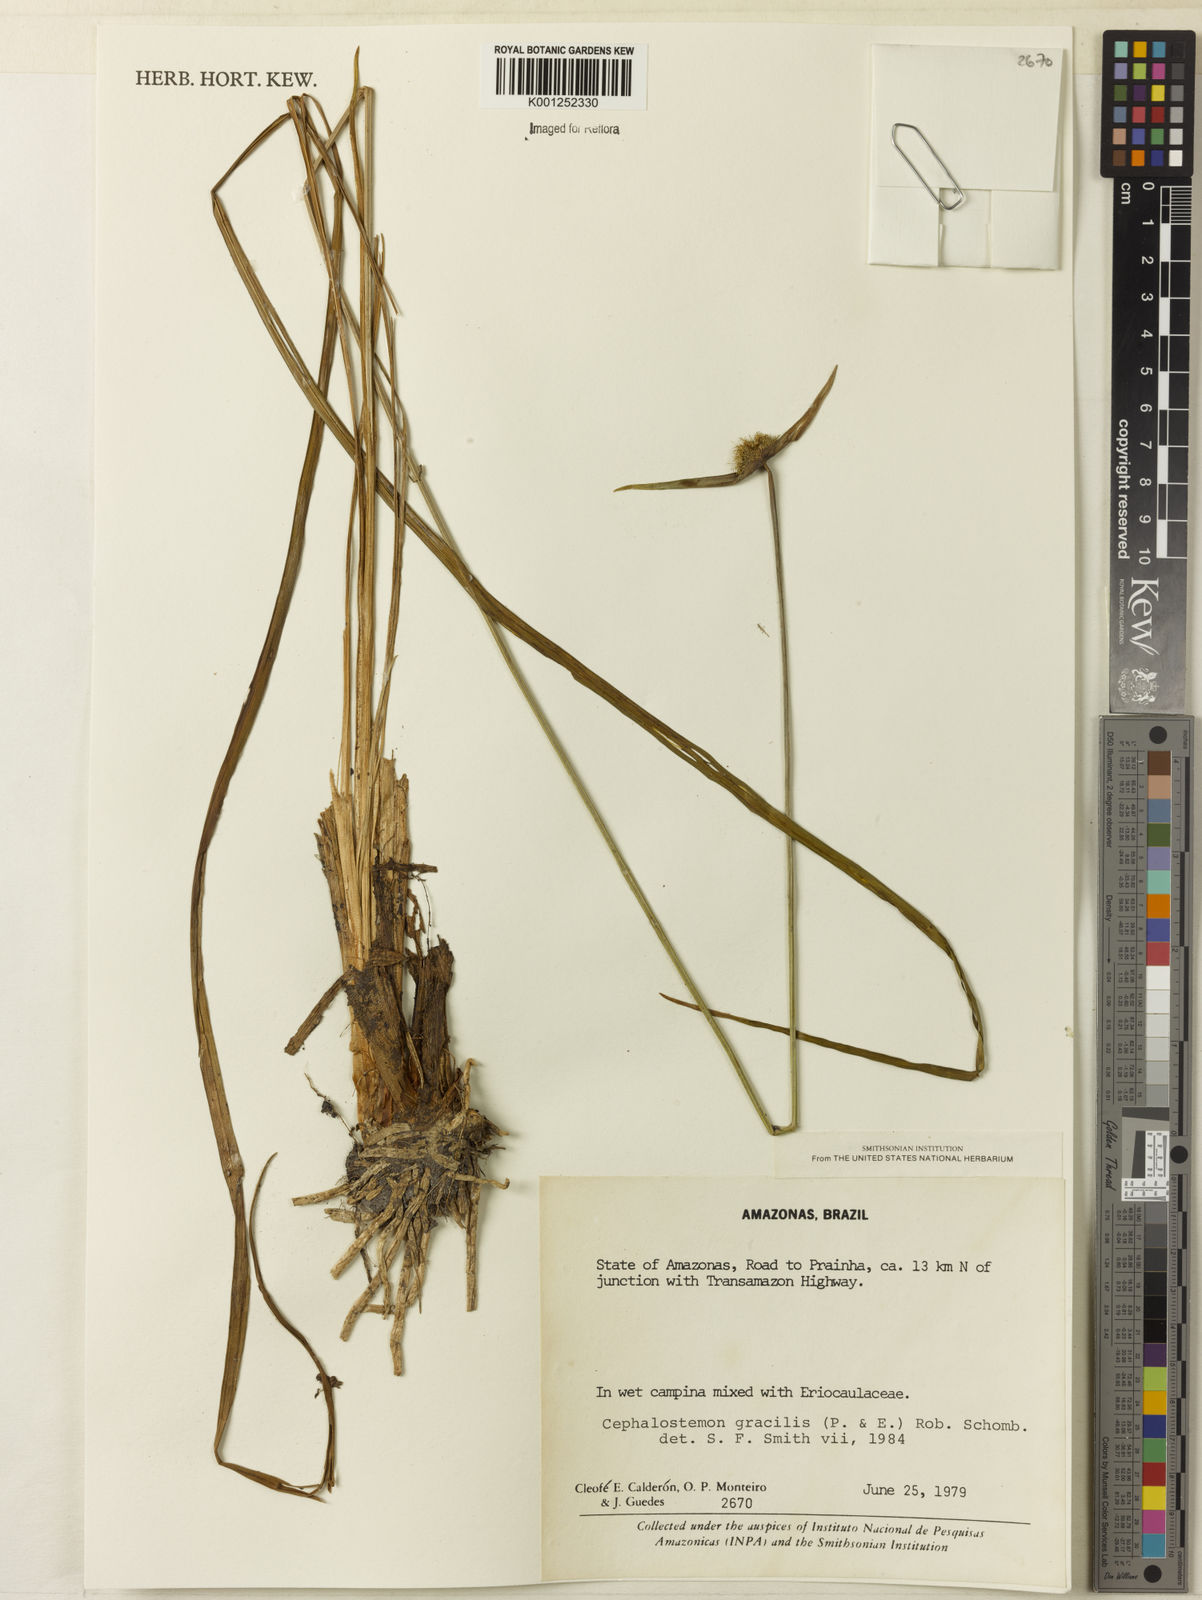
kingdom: Plantae
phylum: Tracheophyta
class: Liliopsida
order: Poales
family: Rapateaceae
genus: Cephalostemon
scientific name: Cephalostemon gracilis
